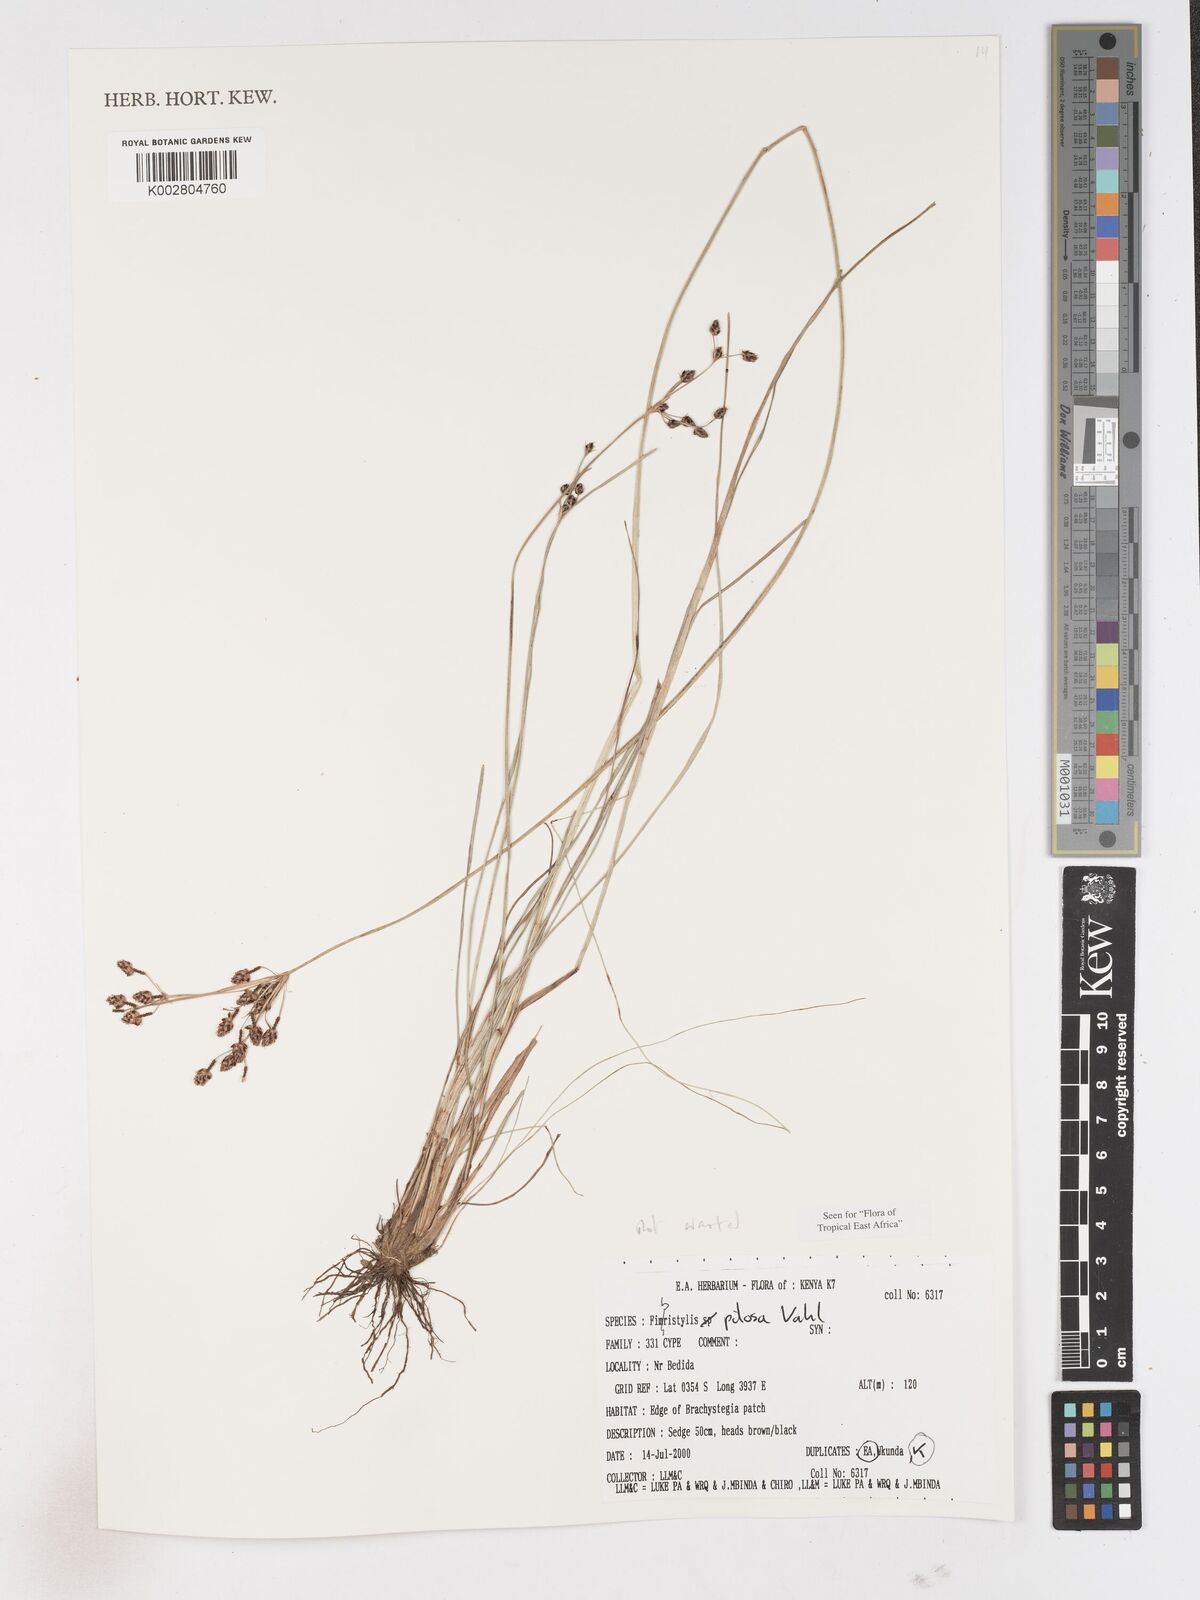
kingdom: Plantae
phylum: Tracheophyta
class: Liliopsida
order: Poales
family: Cyperaceae
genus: Fimbristylis
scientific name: Fimbristylis pilosa
